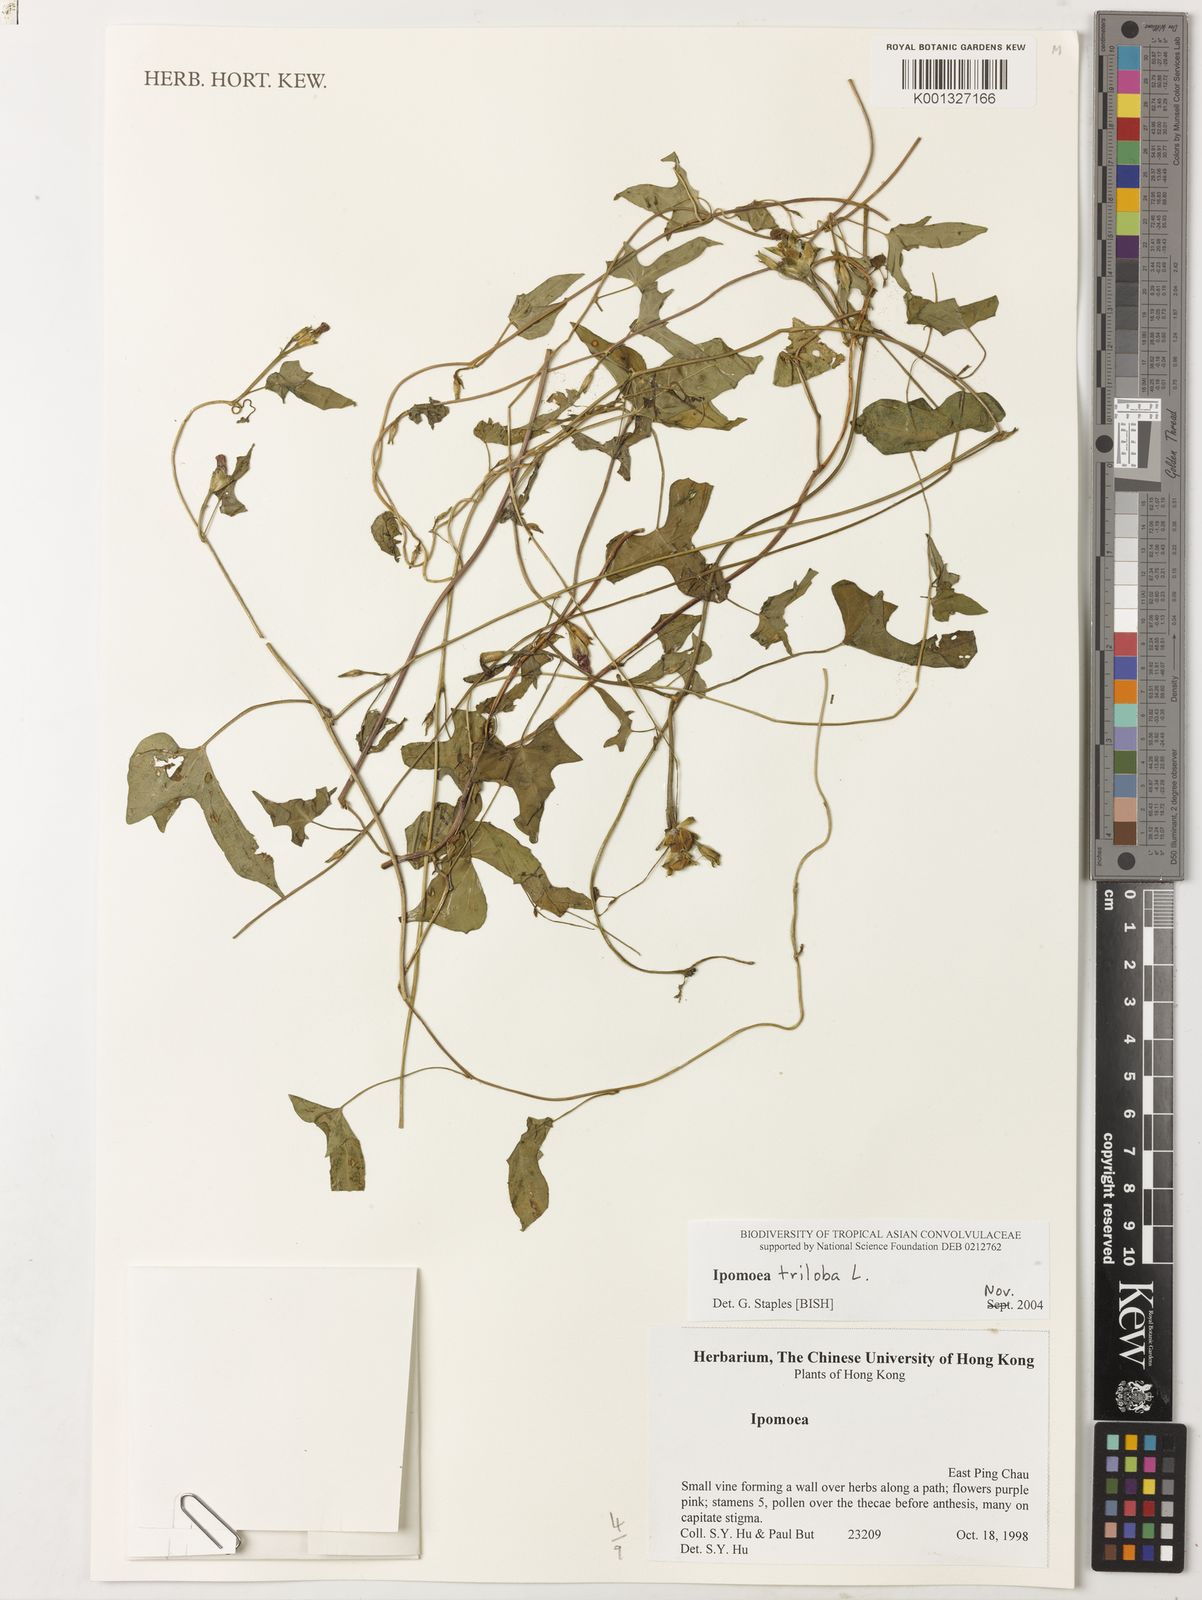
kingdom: Plantae
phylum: Tracheophyta
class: Magnoliopsida
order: Solanales
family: Convolvulaceae
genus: Ipomoea
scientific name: Ipomoea triloba
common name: Little-bell
